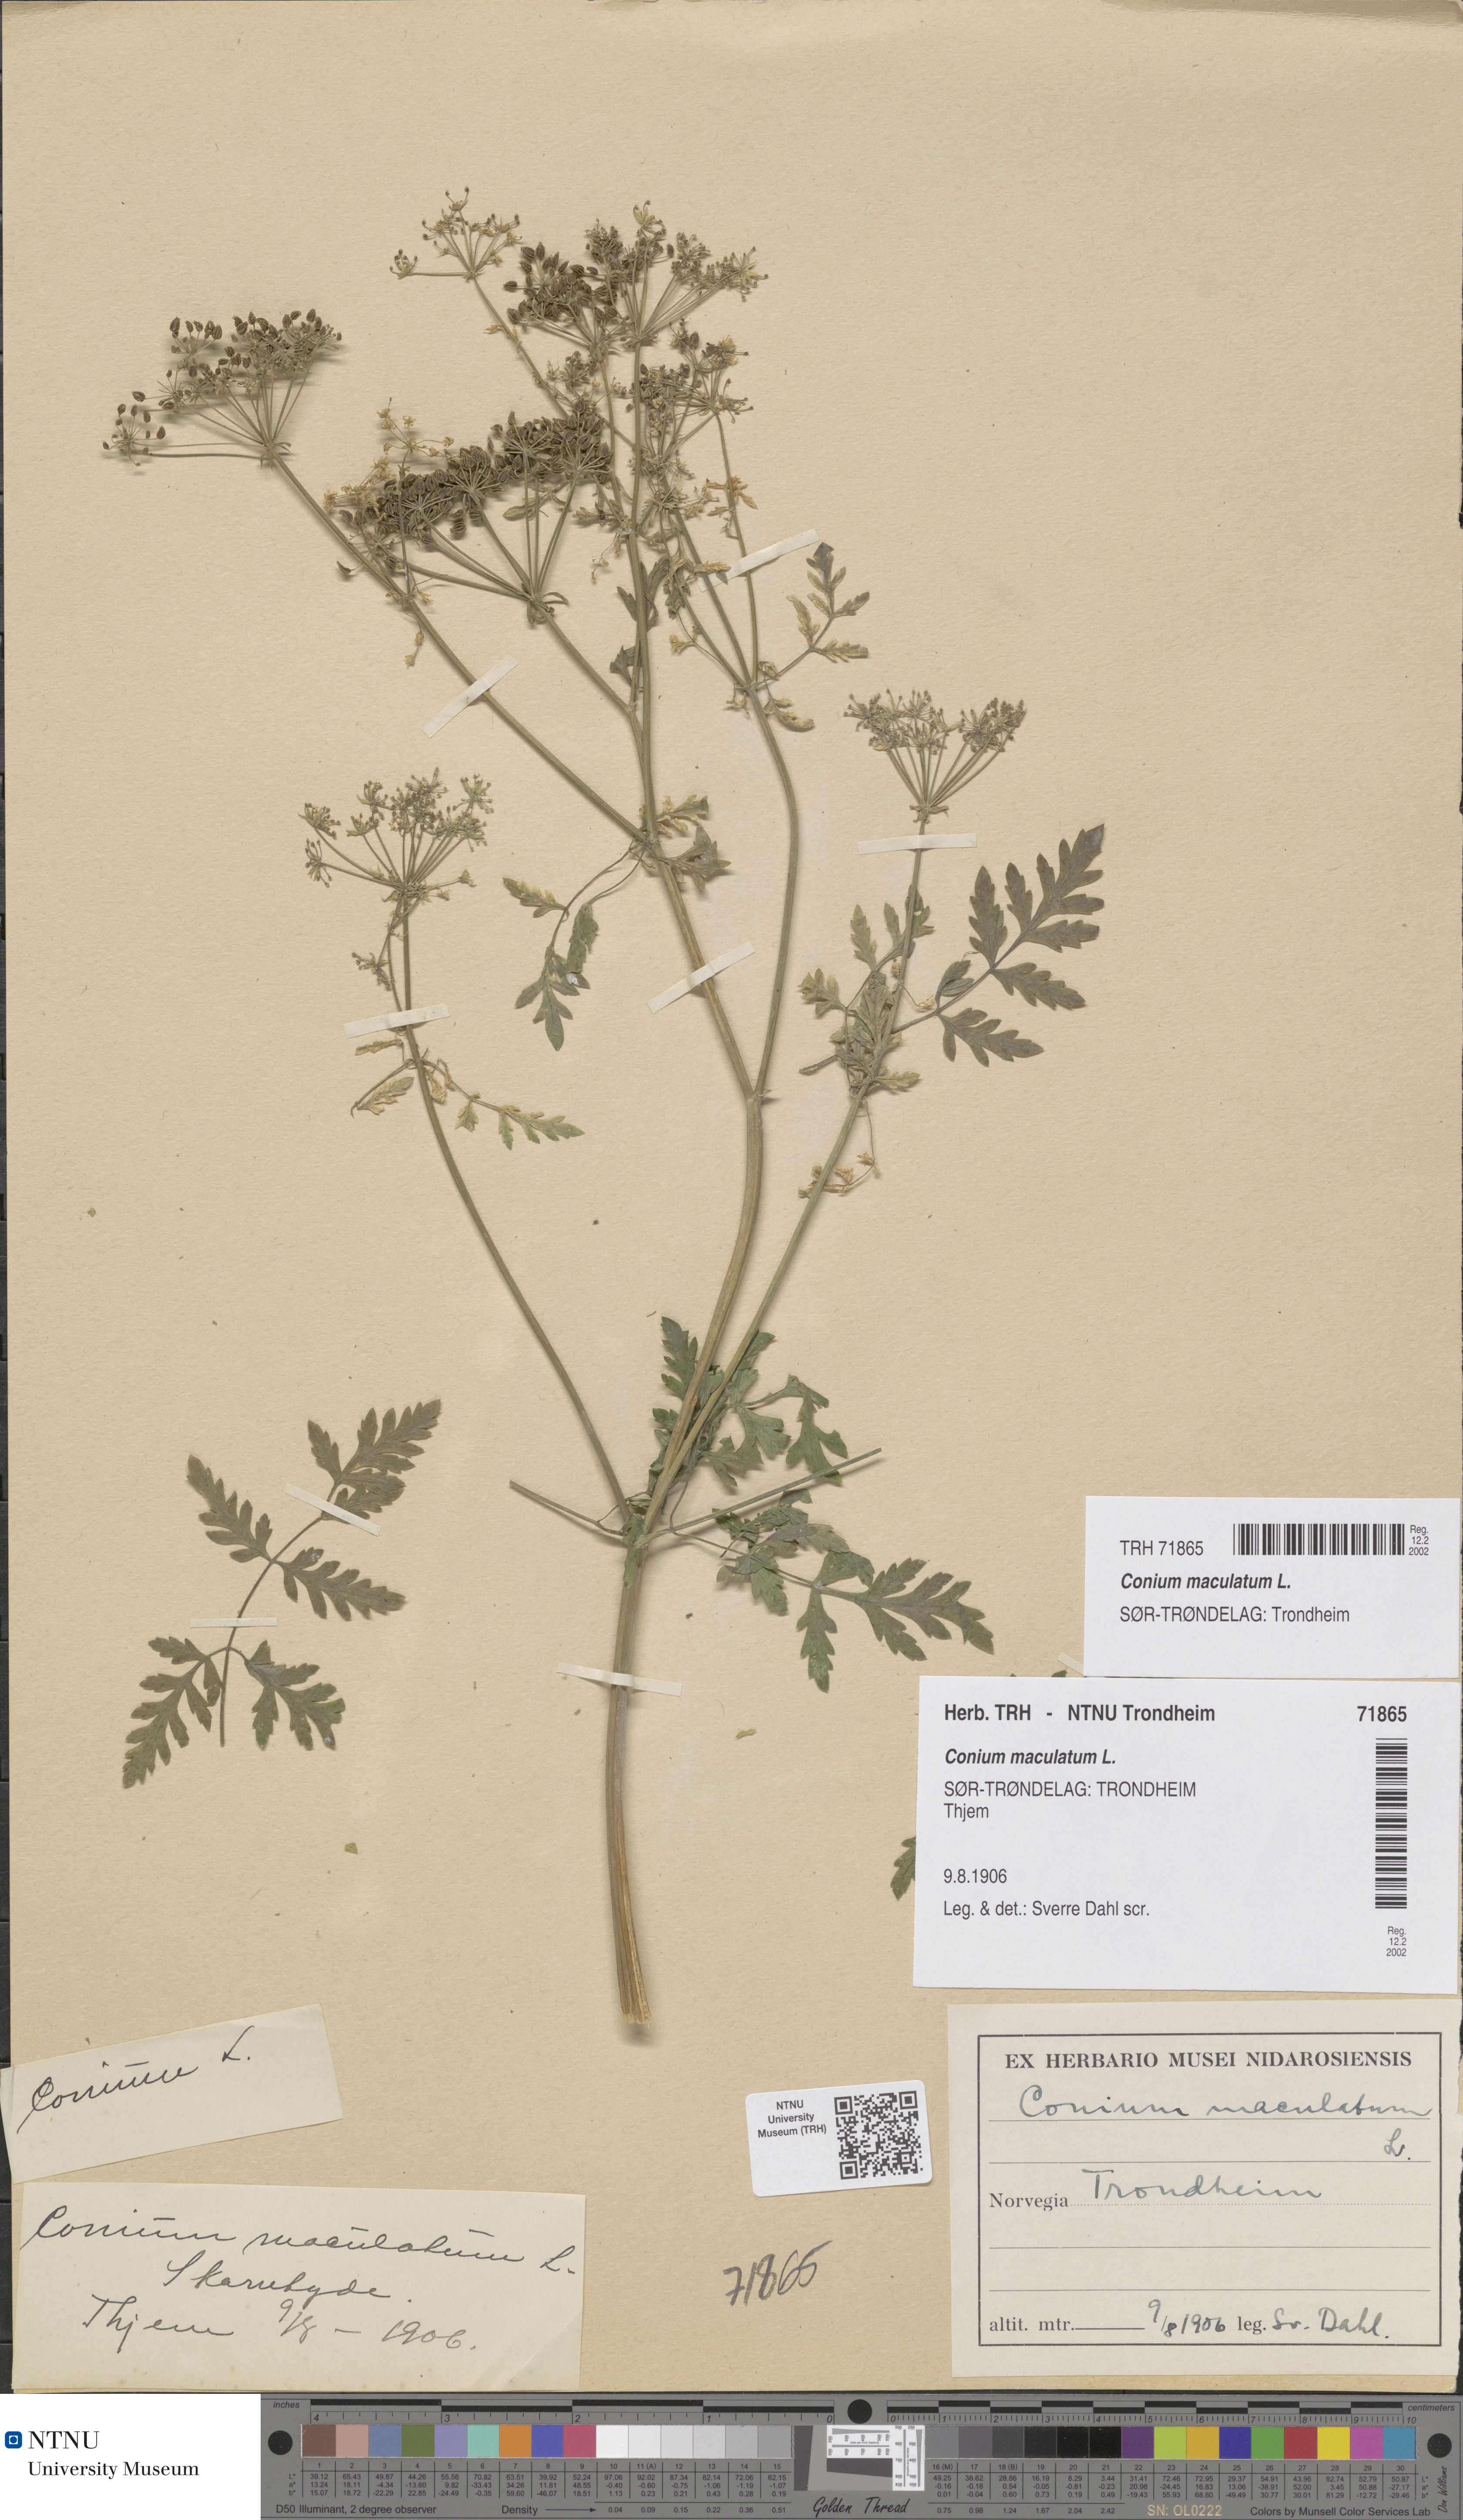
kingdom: Plantae
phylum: Tracheophyta
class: Magnoliopsida
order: Apiales
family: Apiaceae
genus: Conium
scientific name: Conium maculatum
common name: Hemlock
